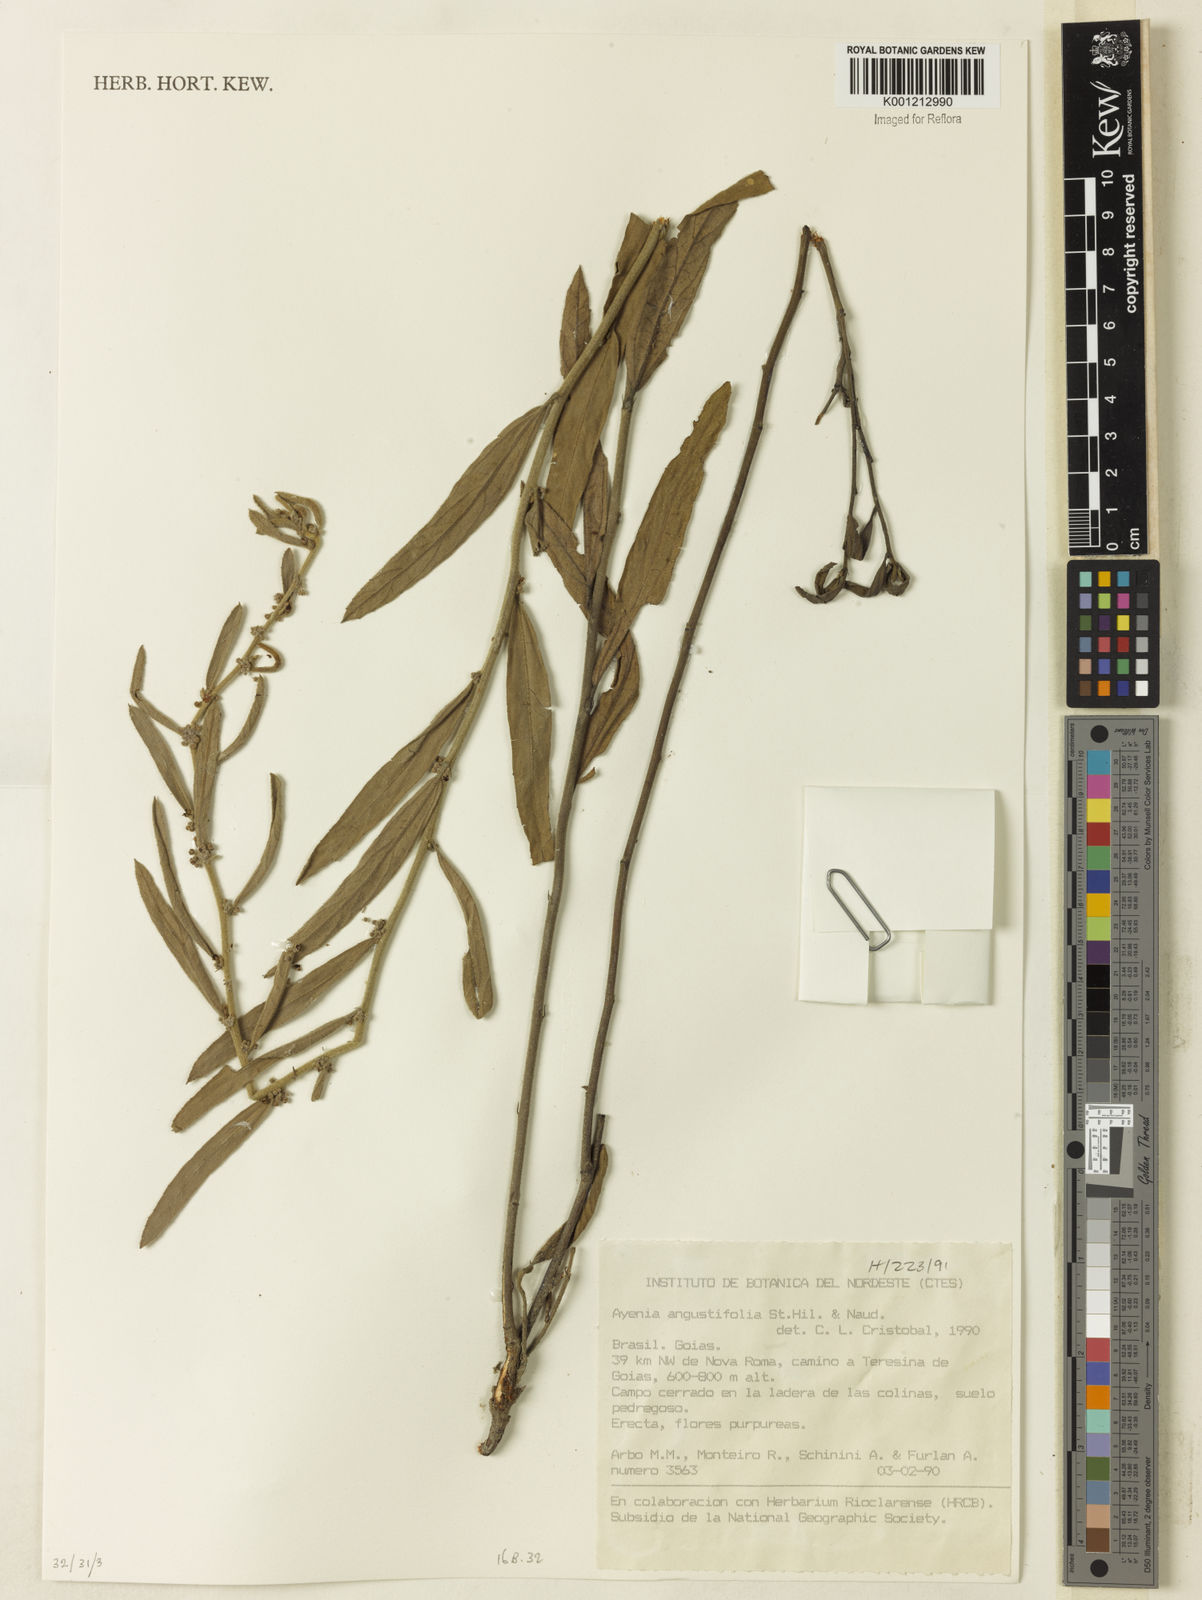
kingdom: Plantae
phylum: Tracheophyta
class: Magnoliopsida
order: Malvales
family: Malvaceae
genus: Ayenia
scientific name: Ayenia angustifolia
